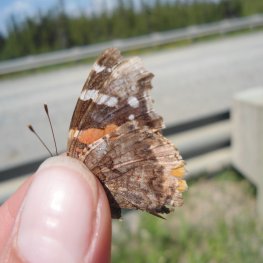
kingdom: Animalia
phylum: Arthropoda
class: Insecta
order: Lepidoptera
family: Nymphalidae
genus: Vanessa
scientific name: Vanessa atalanta
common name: Red Admiral
